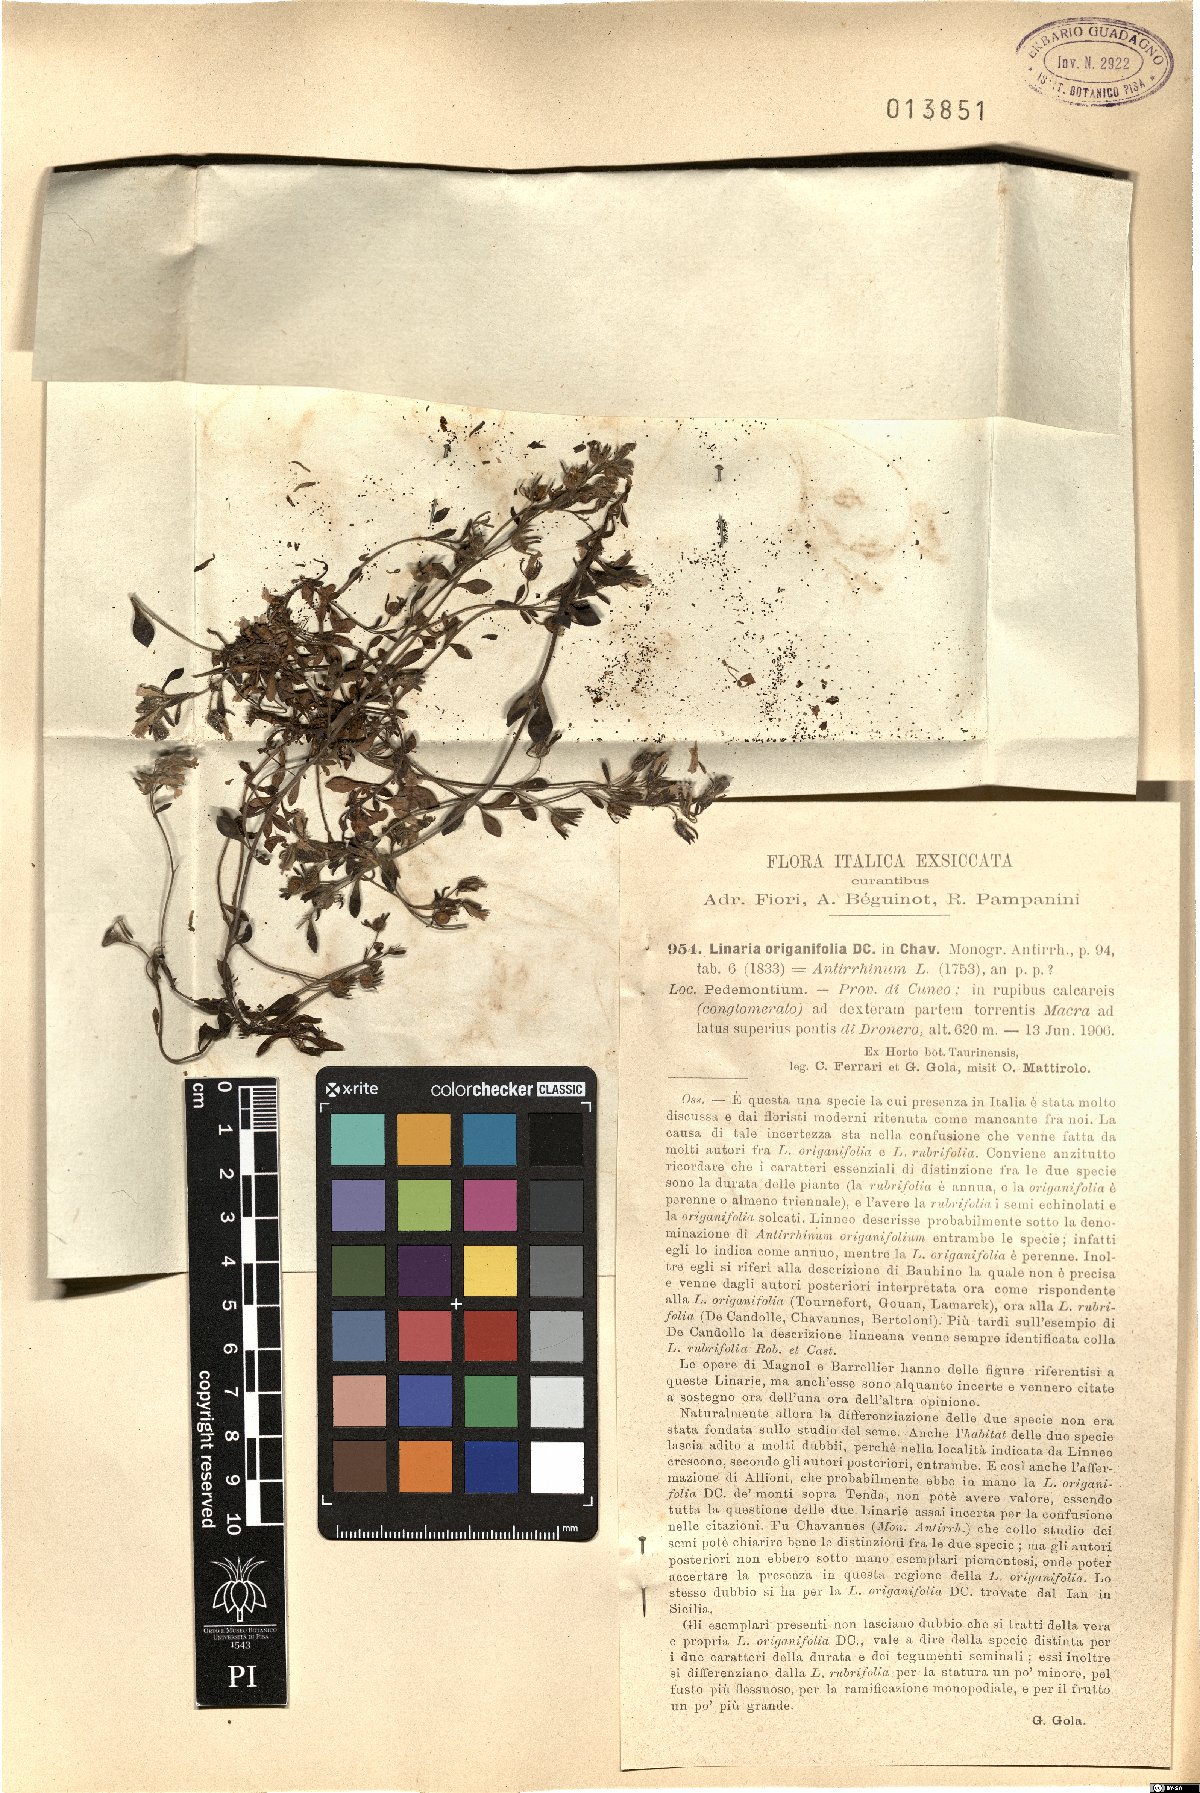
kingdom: Plantae
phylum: Tracheophyta
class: Magnoliopsida
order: Lamiales
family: Plantaginaceae
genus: Chaenorhinum
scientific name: Chaenorhinum origanifolium
